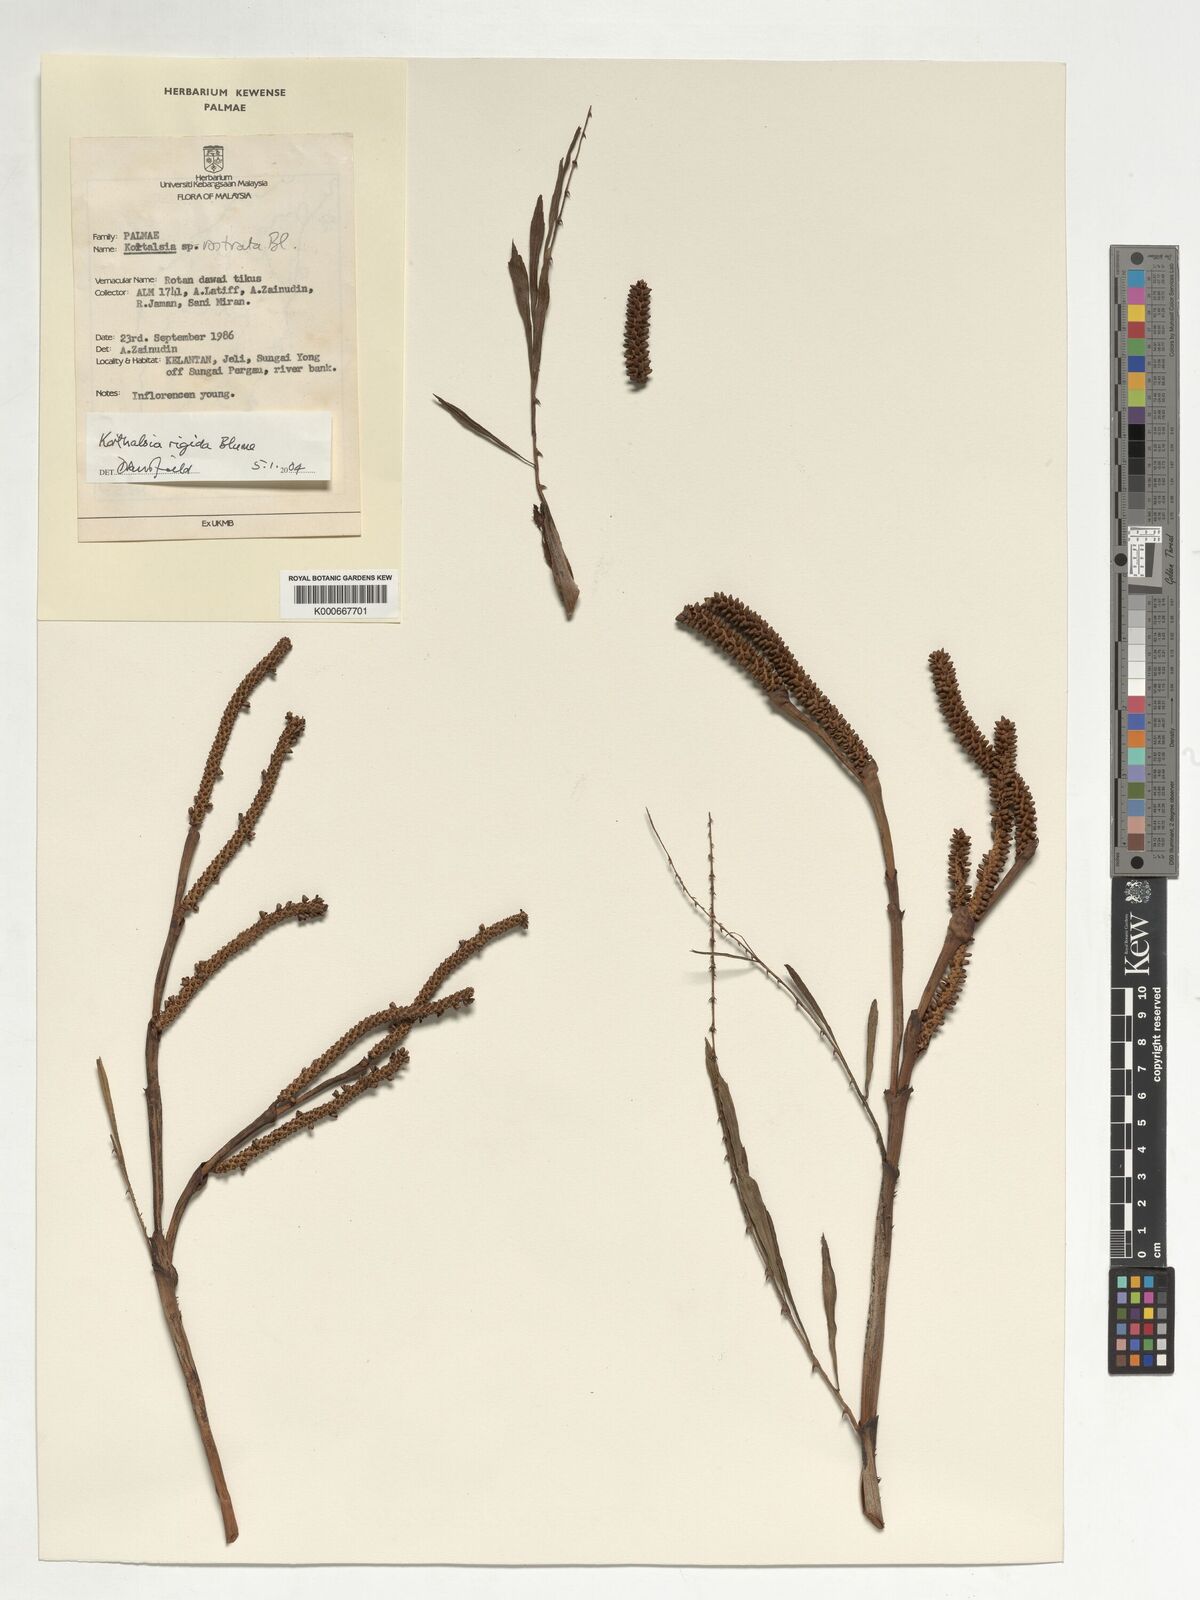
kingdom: Plantae
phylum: Tracheophyta
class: Liliopsida
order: Arecales
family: Arecaceae
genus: Korthalsia
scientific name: Korthalsia rigida
